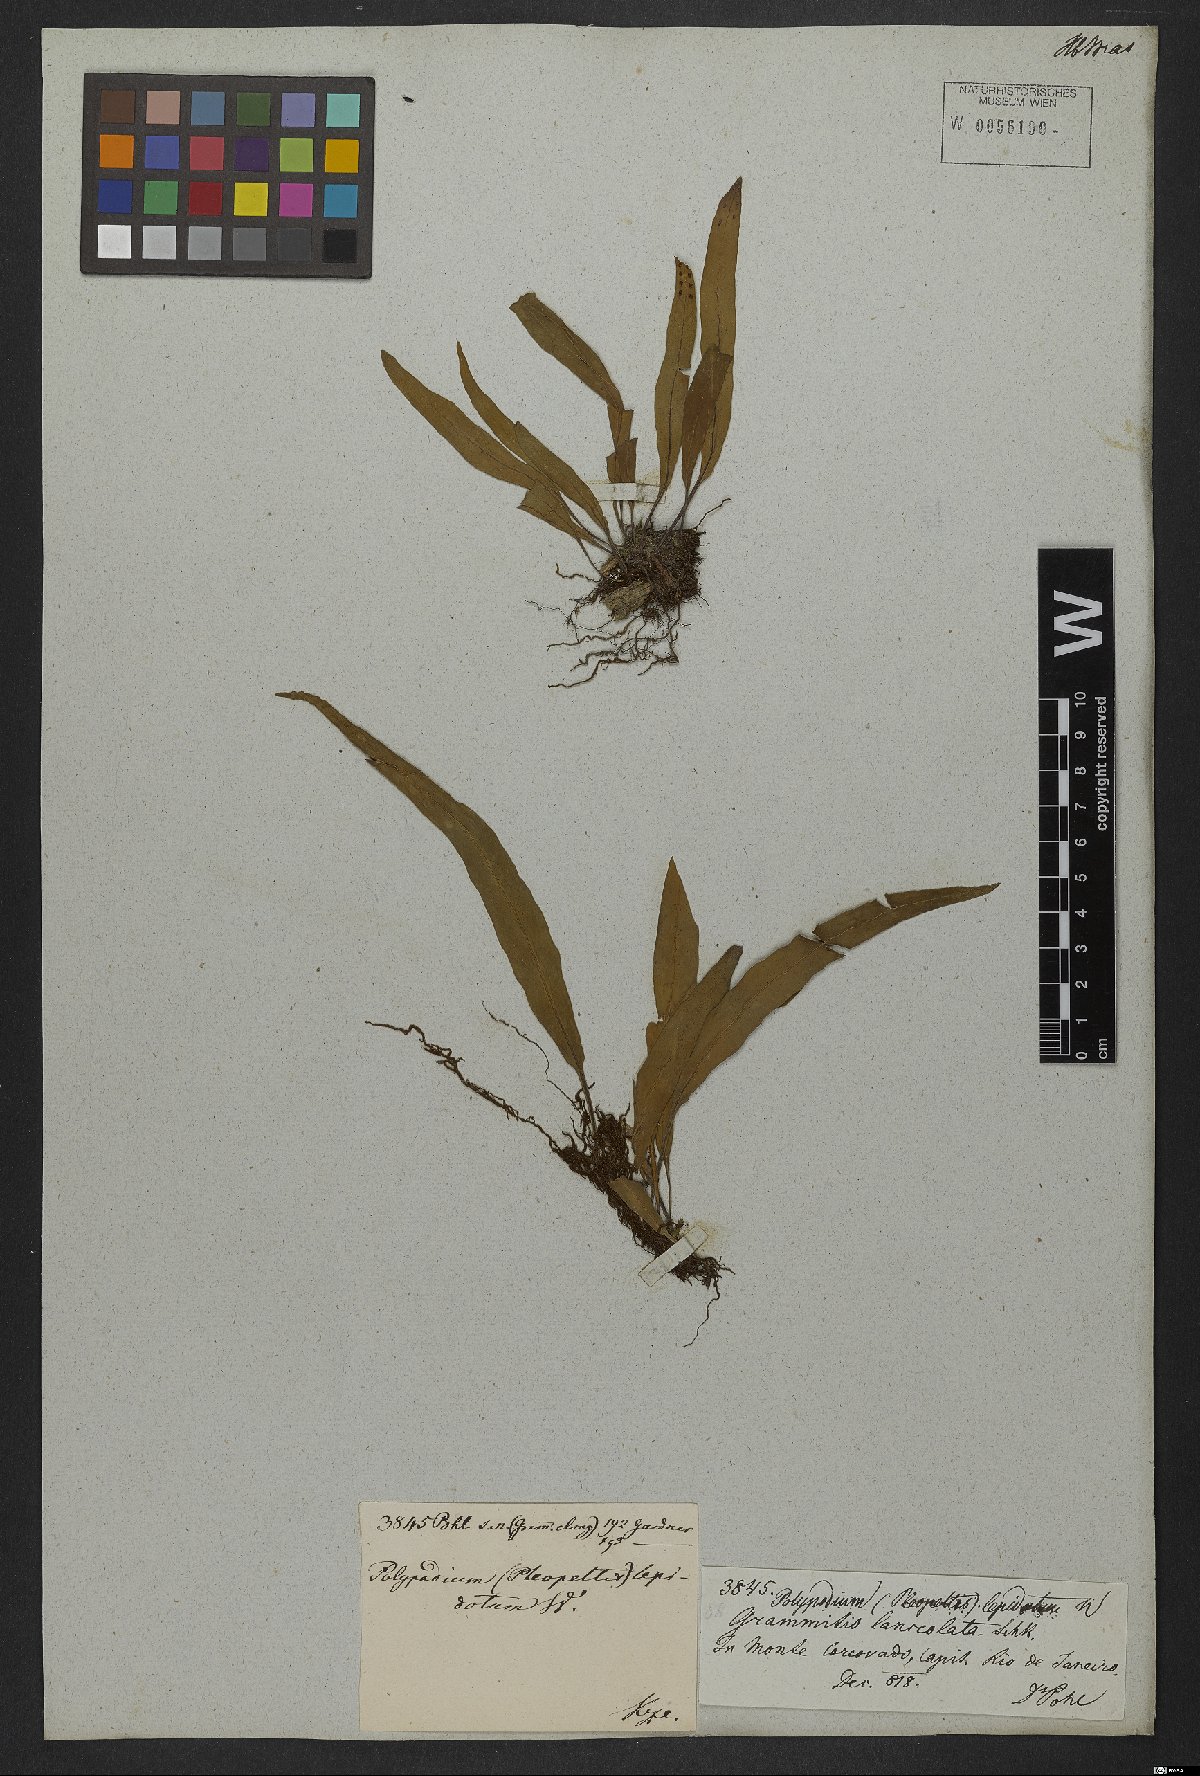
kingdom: Plantae
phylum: Tracheophyta
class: Polypodiopsida
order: Polypodiales
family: Polypodiaceae
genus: Pleopeltis
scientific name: Pleopeltis macrocarpa
